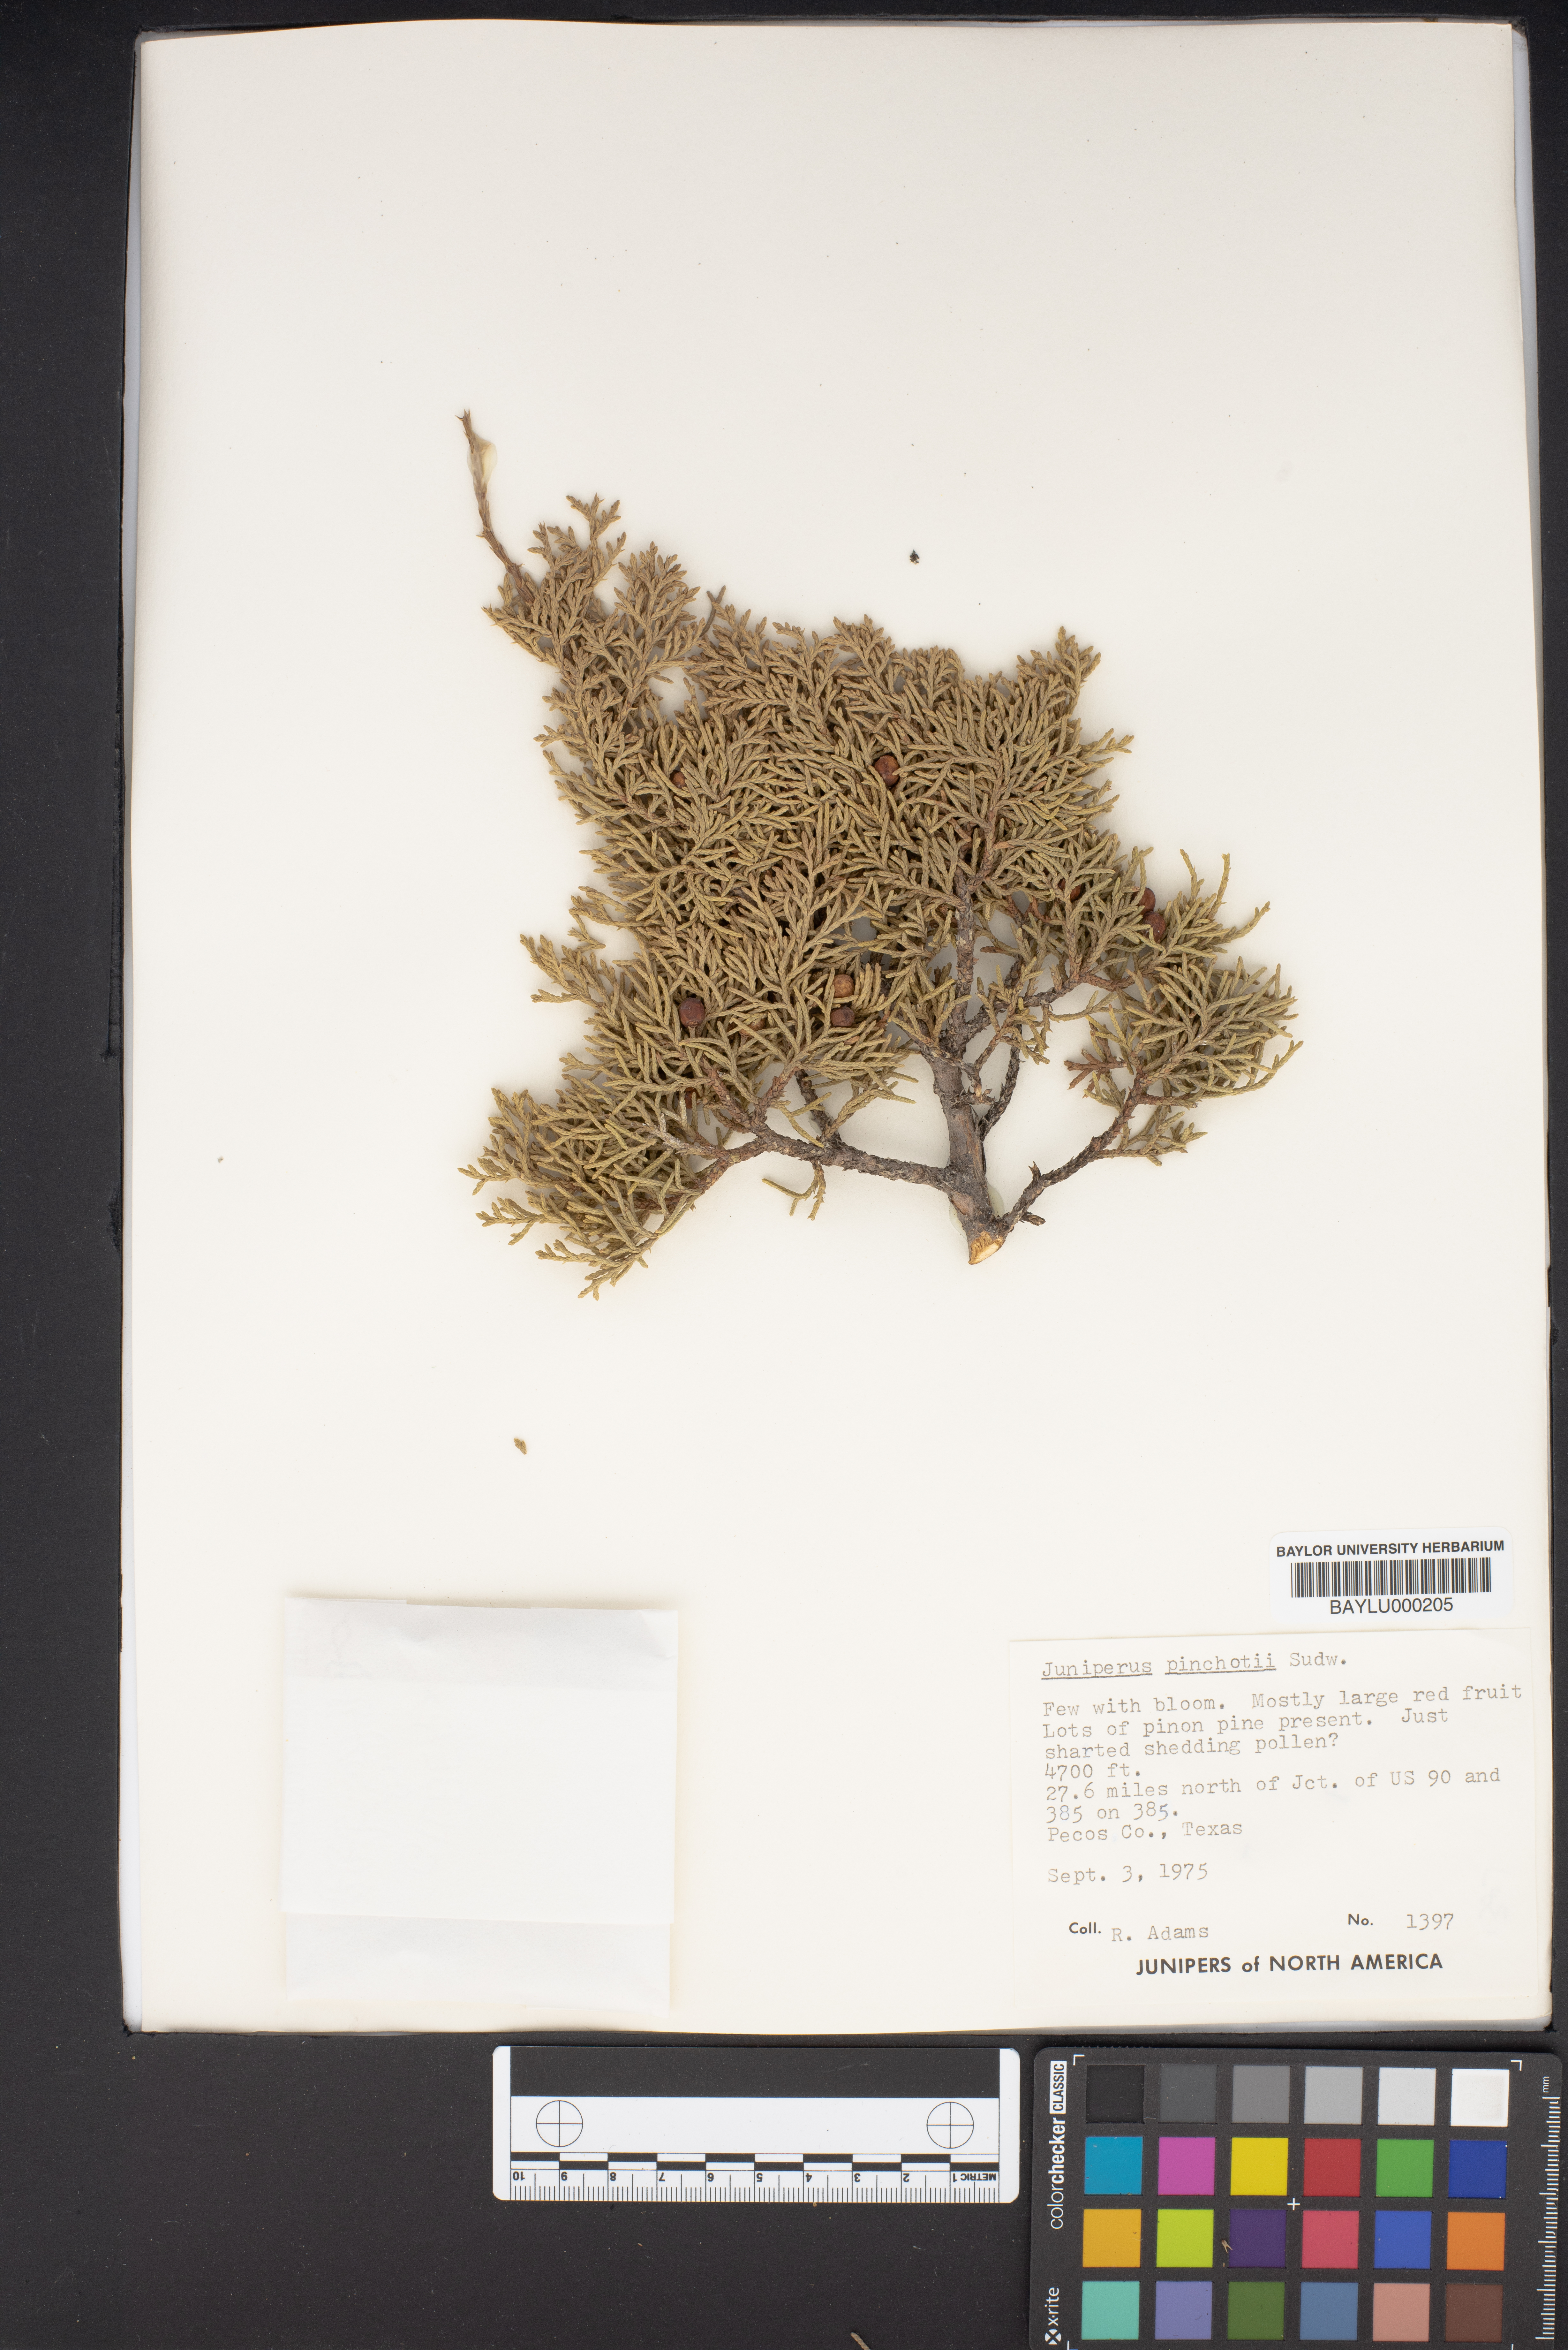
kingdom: Plantae
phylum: Tracheophyta
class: Pinopsida
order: Pinales
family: Cupressaceae
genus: Juniperus
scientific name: Juniperus pinchotii
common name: Pinchot juniper
